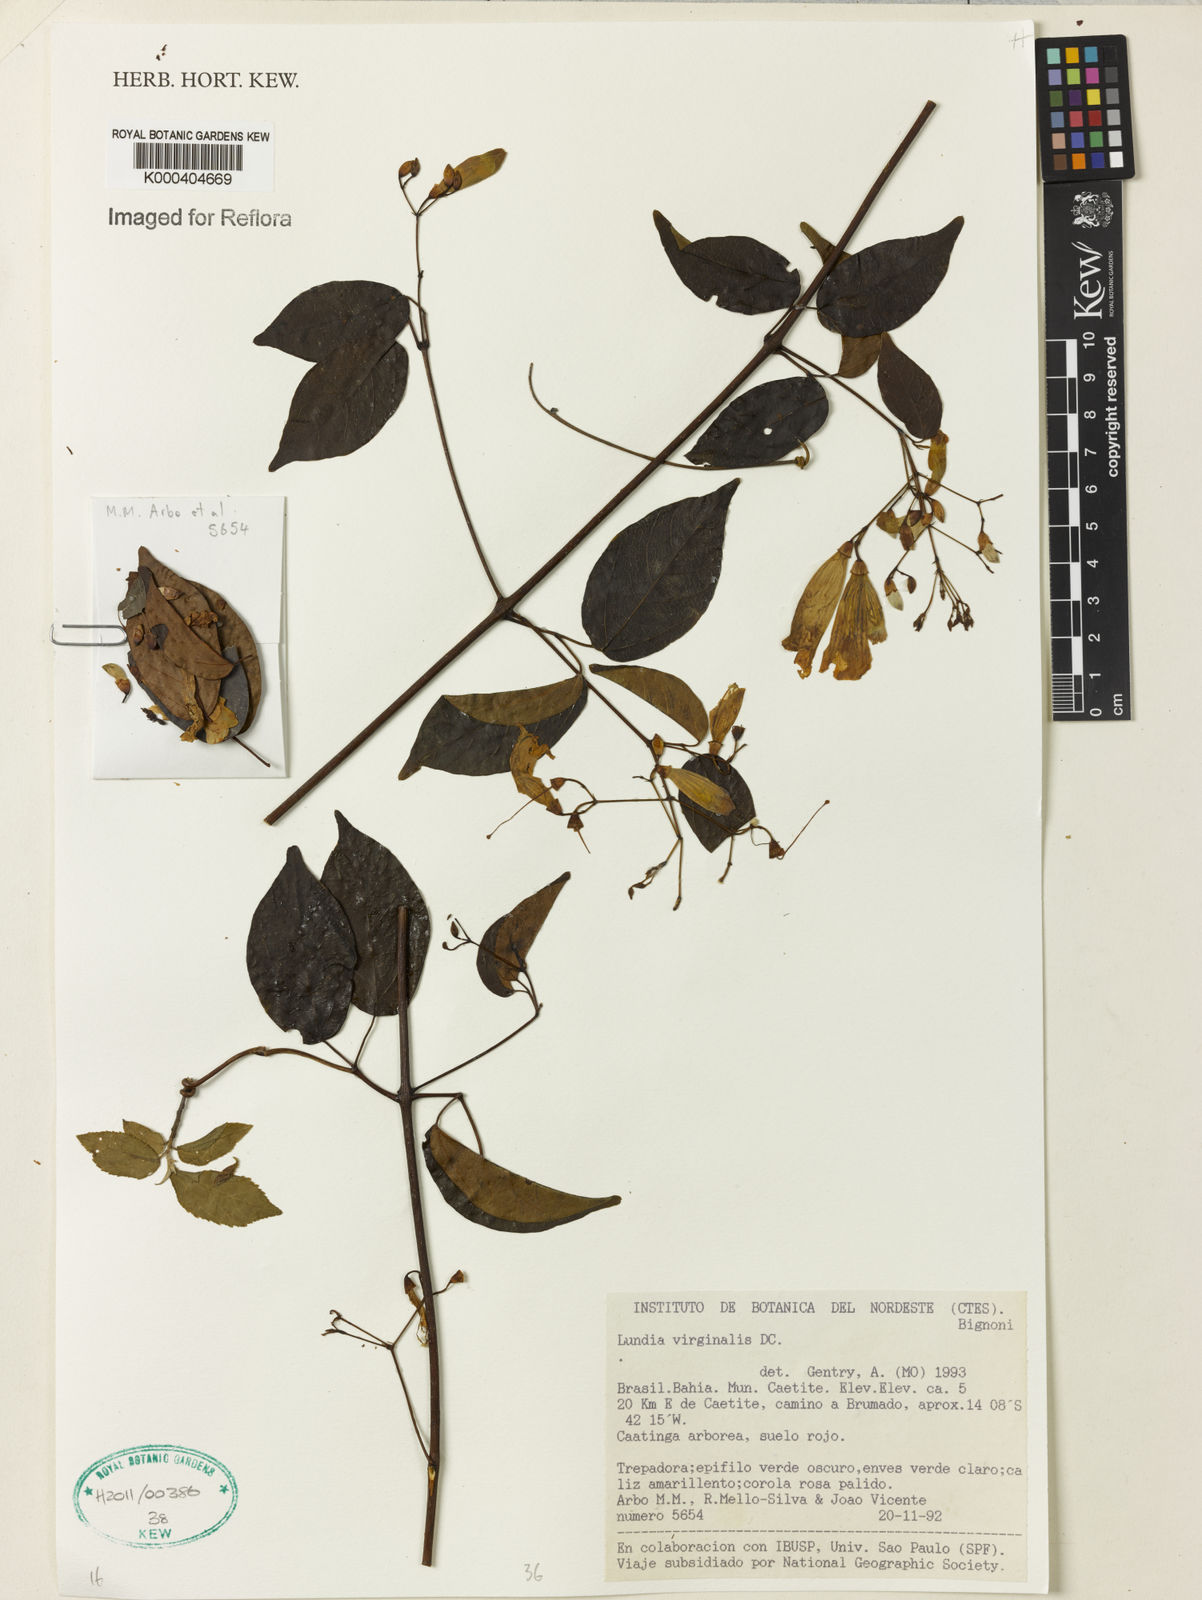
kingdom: Plantae
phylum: Tracheophyta
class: Magnoliopsida
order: Lamiales
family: Bignoniaceae
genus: Lundia
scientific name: Lundia virginalis
